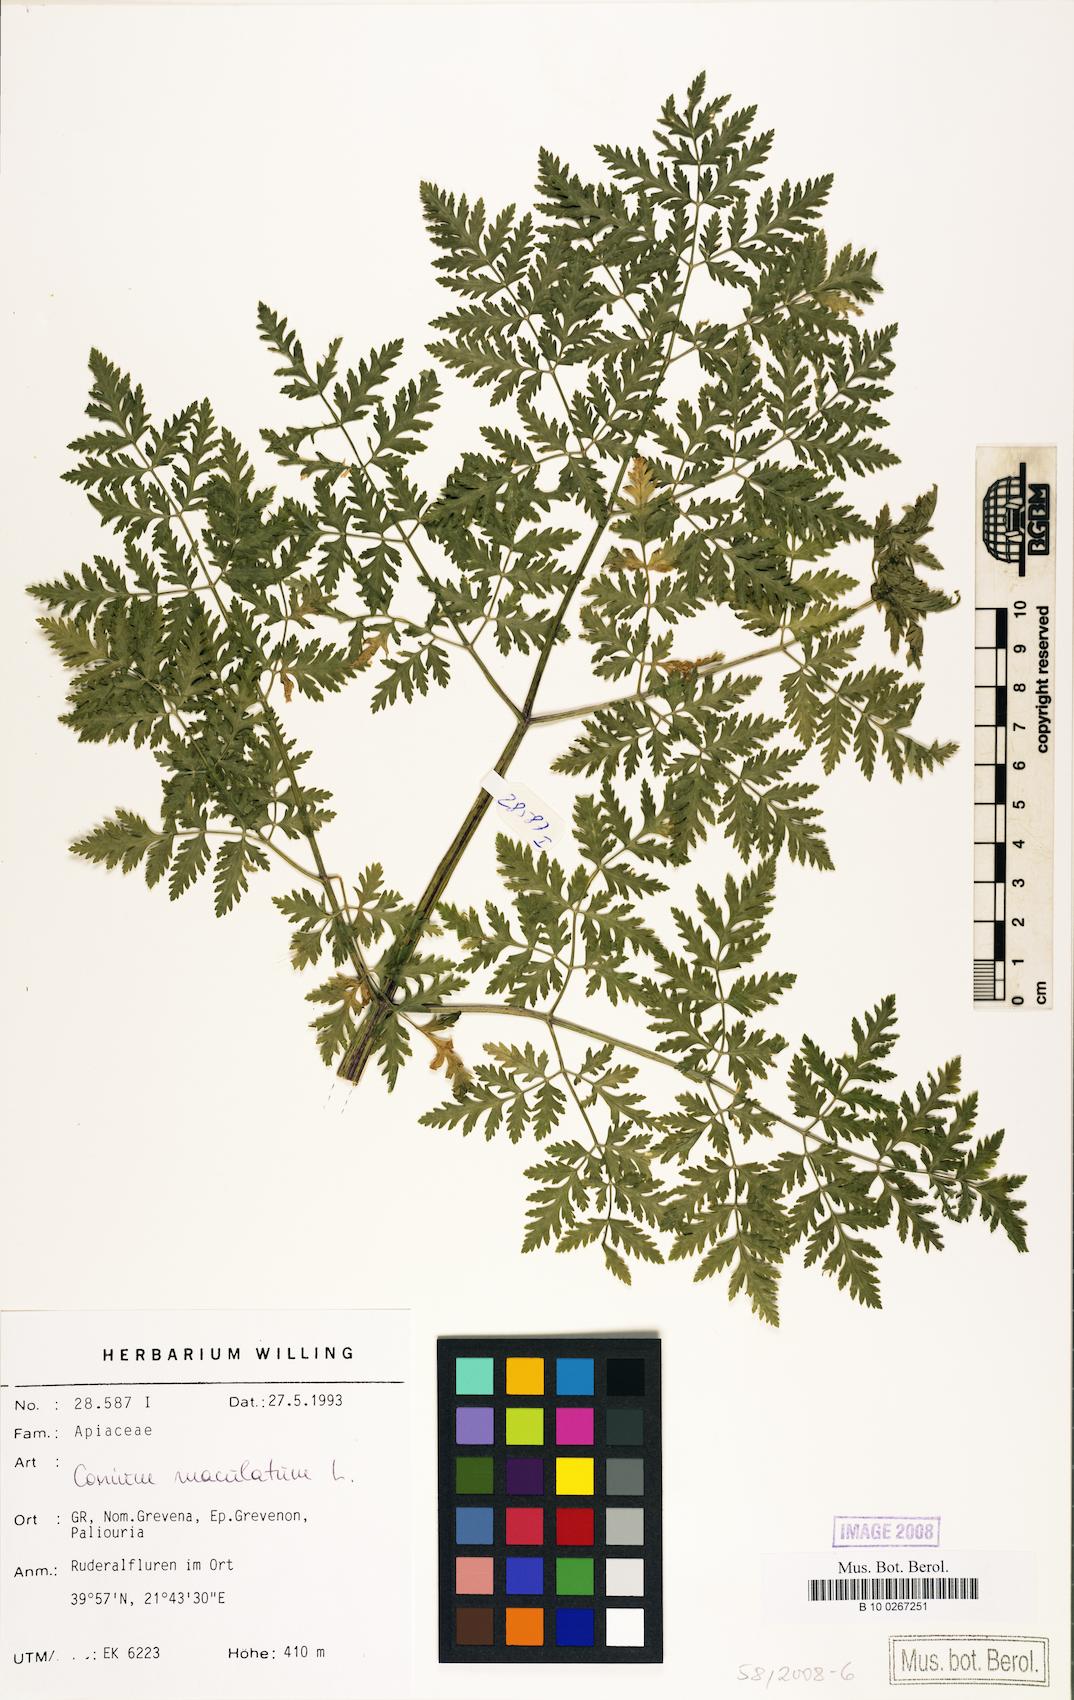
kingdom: Plantae
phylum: Tracheophyta
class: Magnoliopsida
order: Apiales
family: Apiaceae
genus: Conium
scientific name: Conium maculatum
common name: Hemlock
